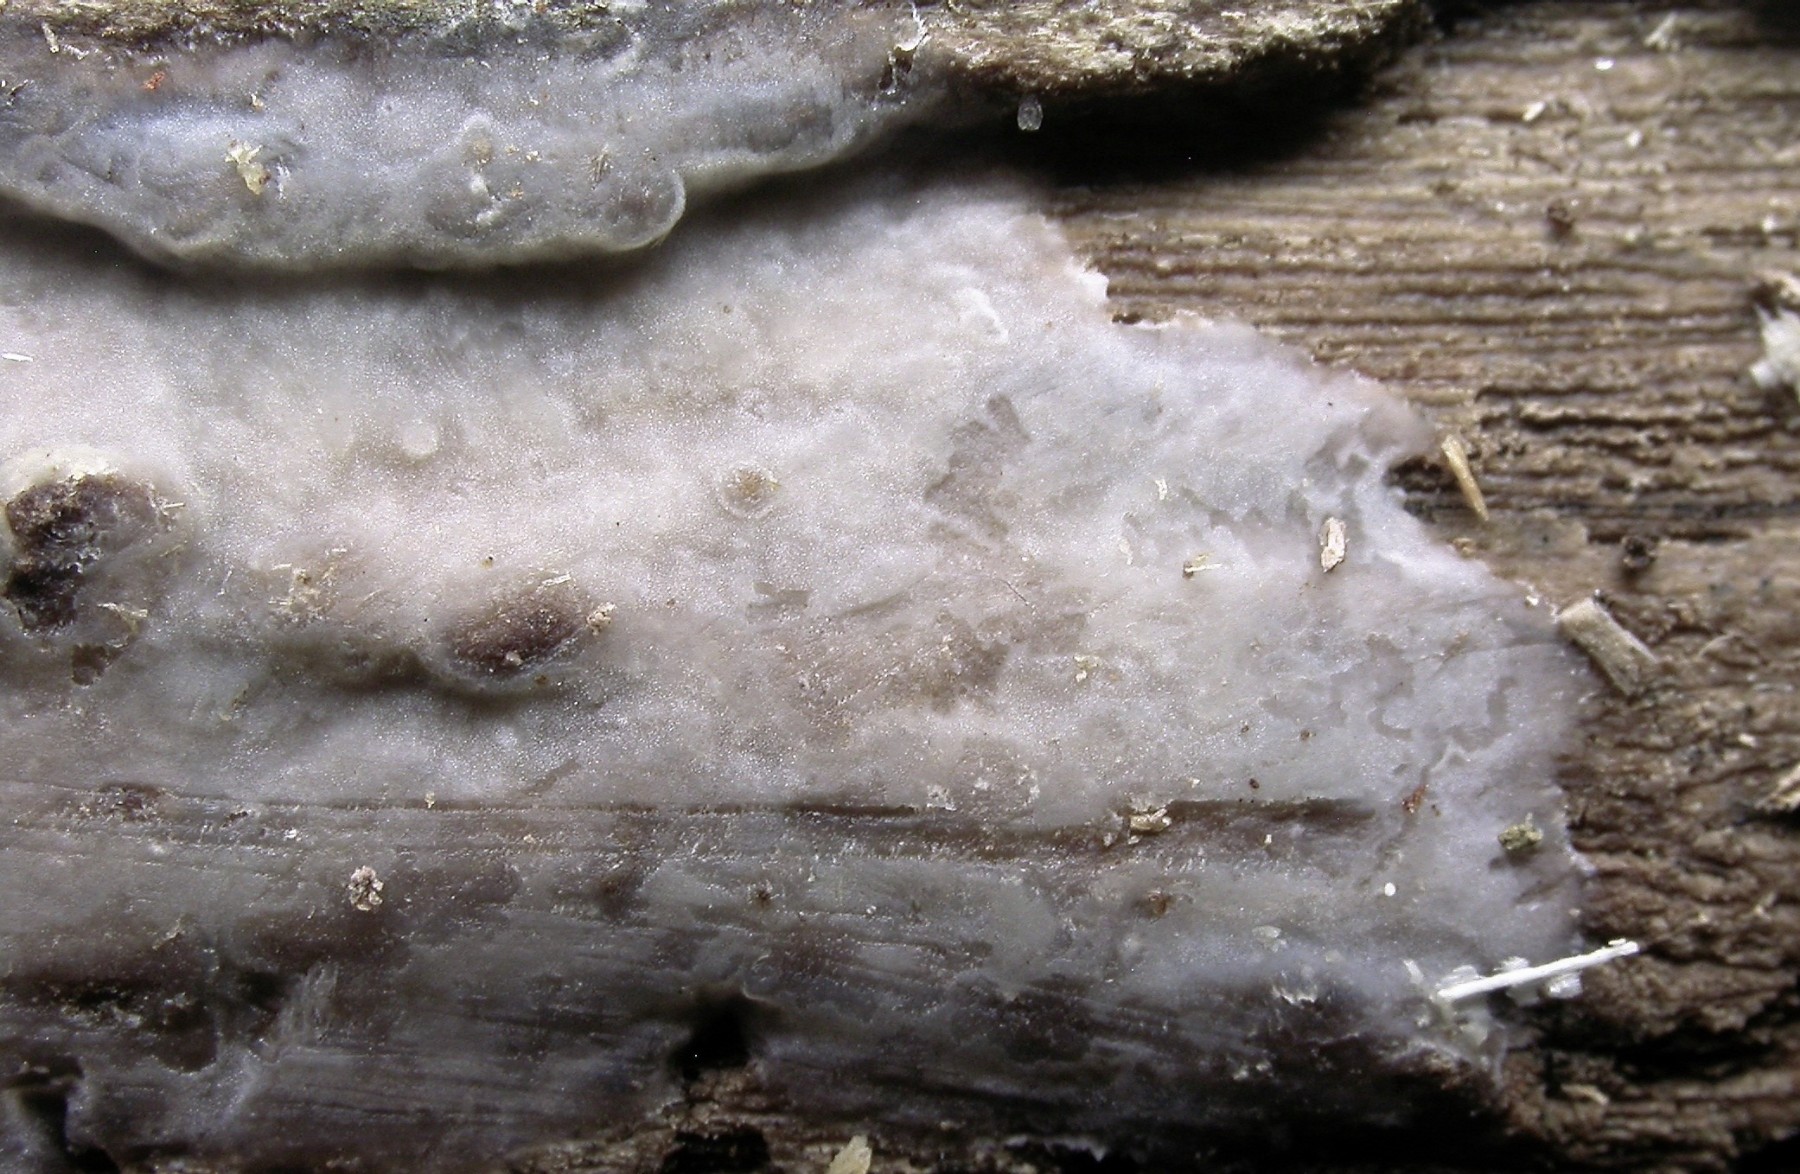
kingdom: Fungi
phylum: Basidiomycota
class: Agaricomycetes
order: Agaricales
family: Radulomycetaceae
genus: Radulomyces
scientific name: Radulomyces confluens
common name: glat naftalinskind
